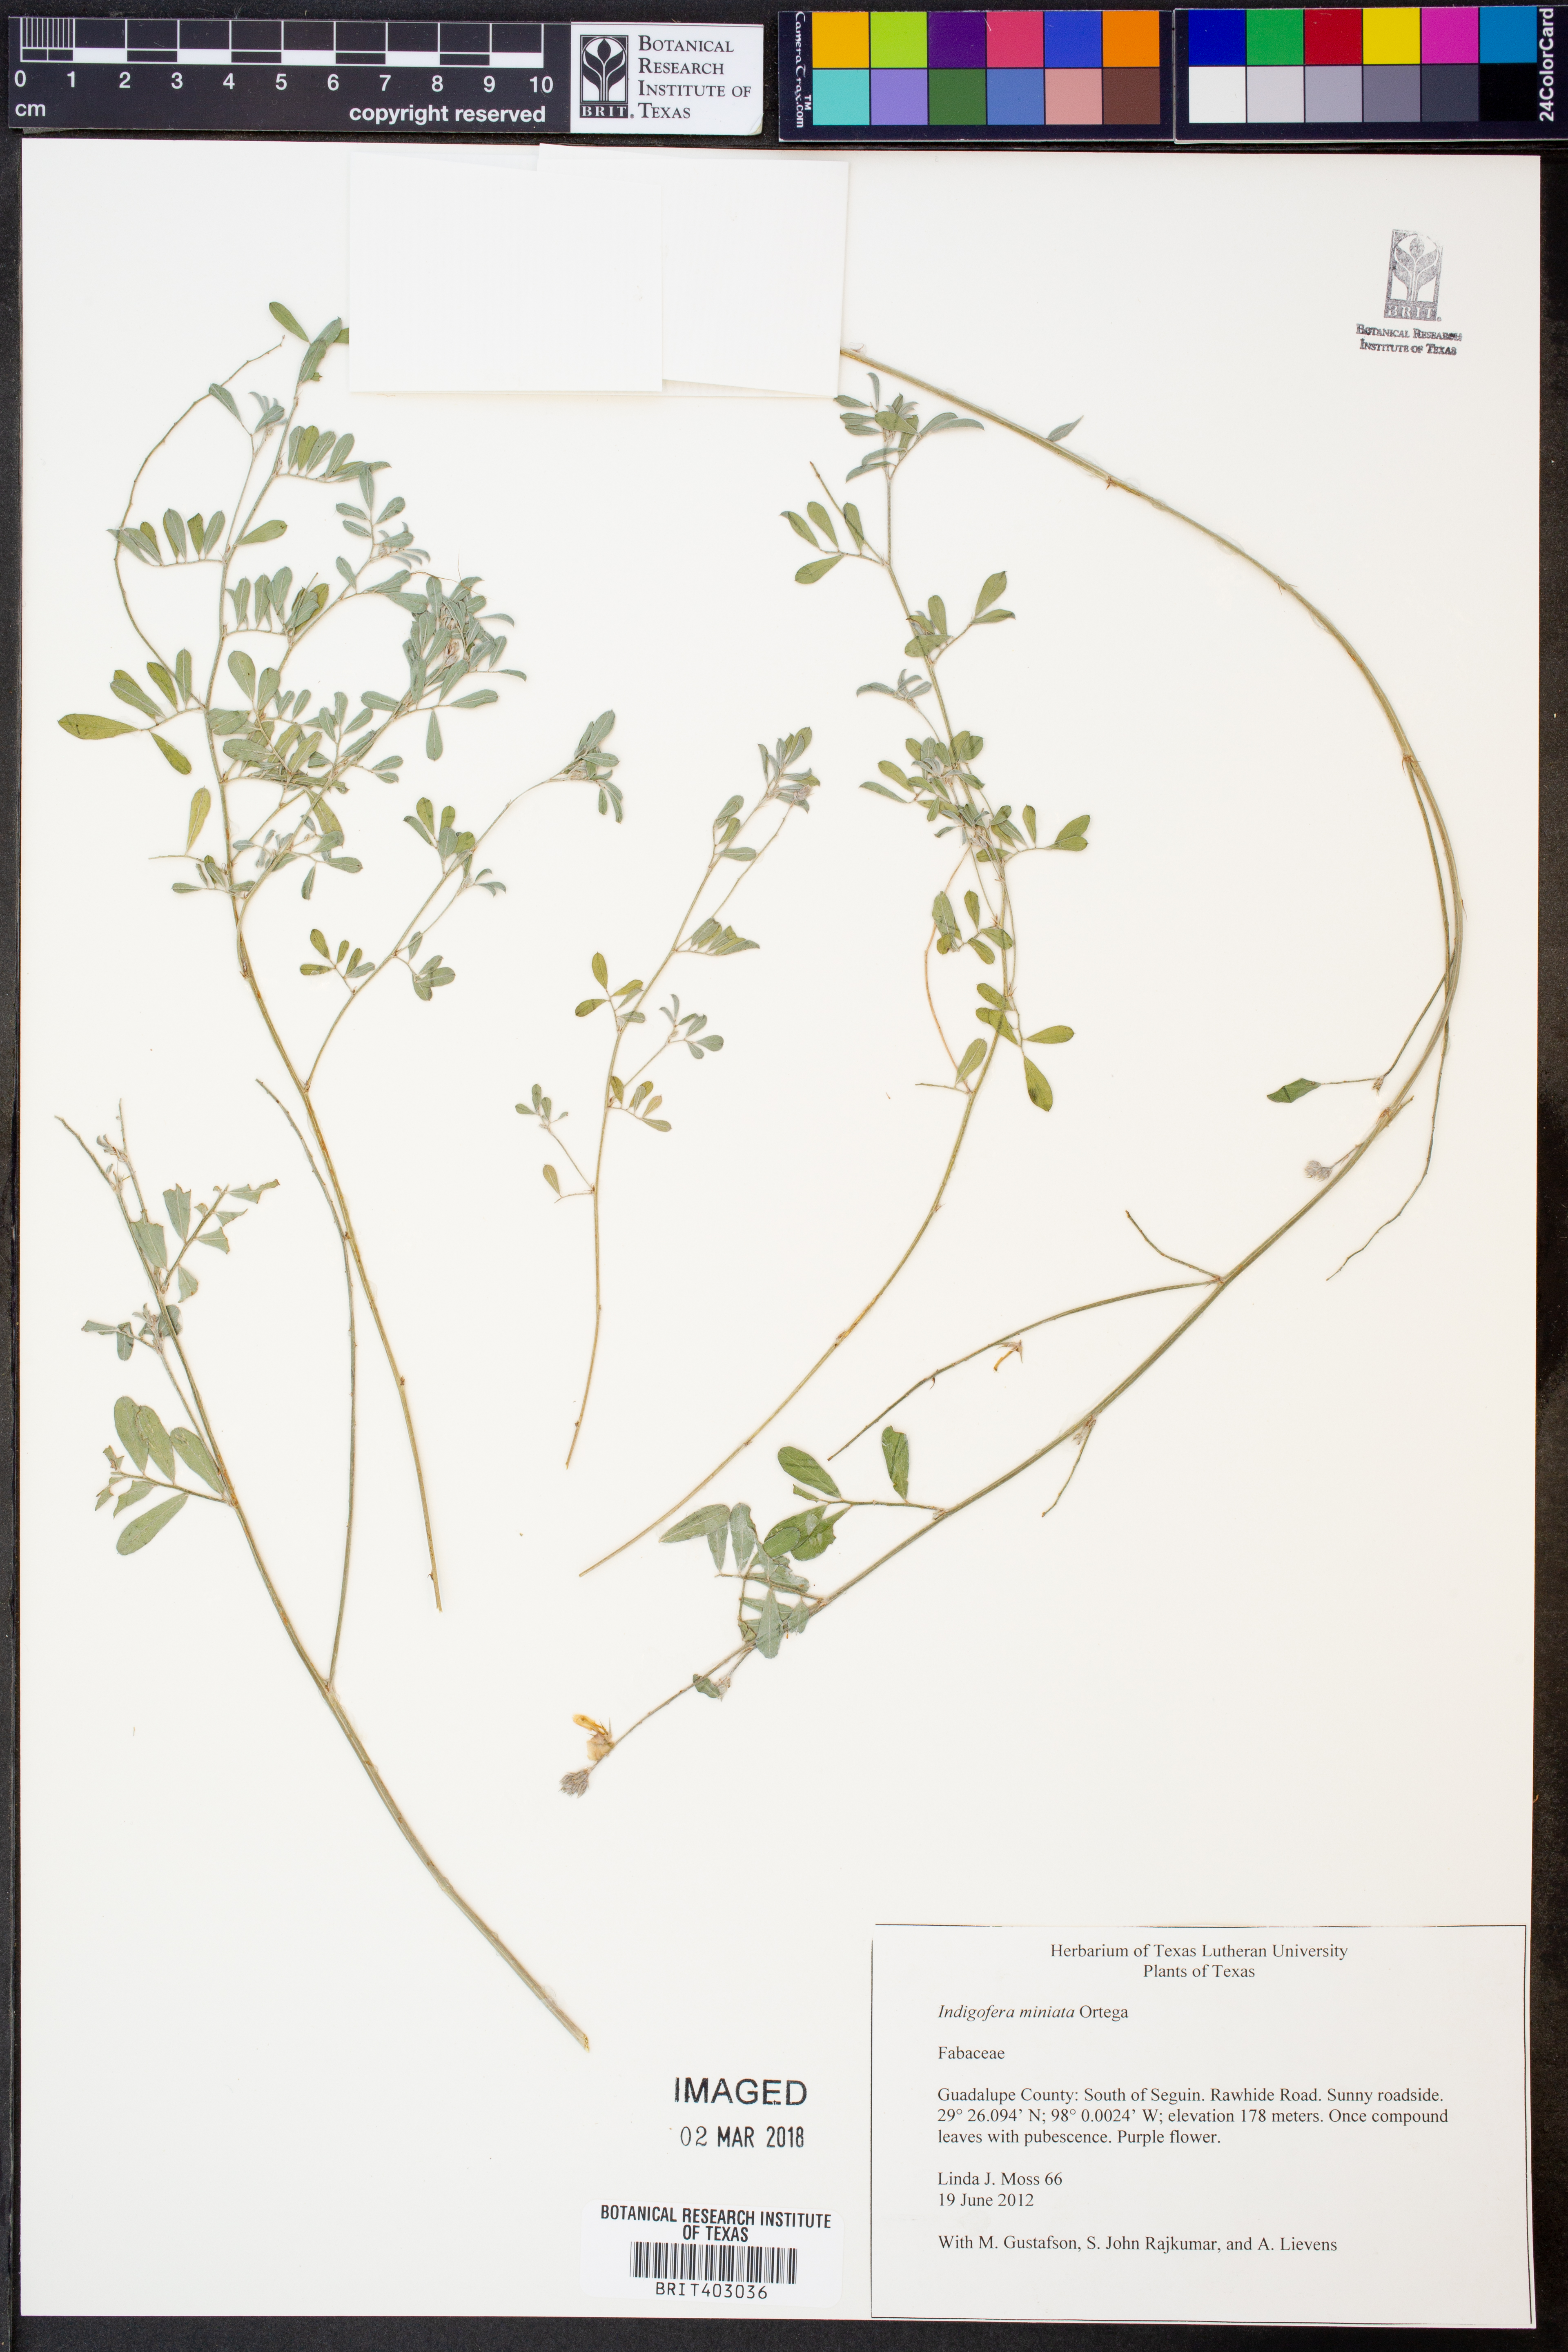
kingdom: Plantae
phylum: Tracheophyta
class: Magnoliopsida
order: Fabales
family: Fabaceae
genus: Indigofera
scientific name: Indigofera miniata
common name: Coast indigo
